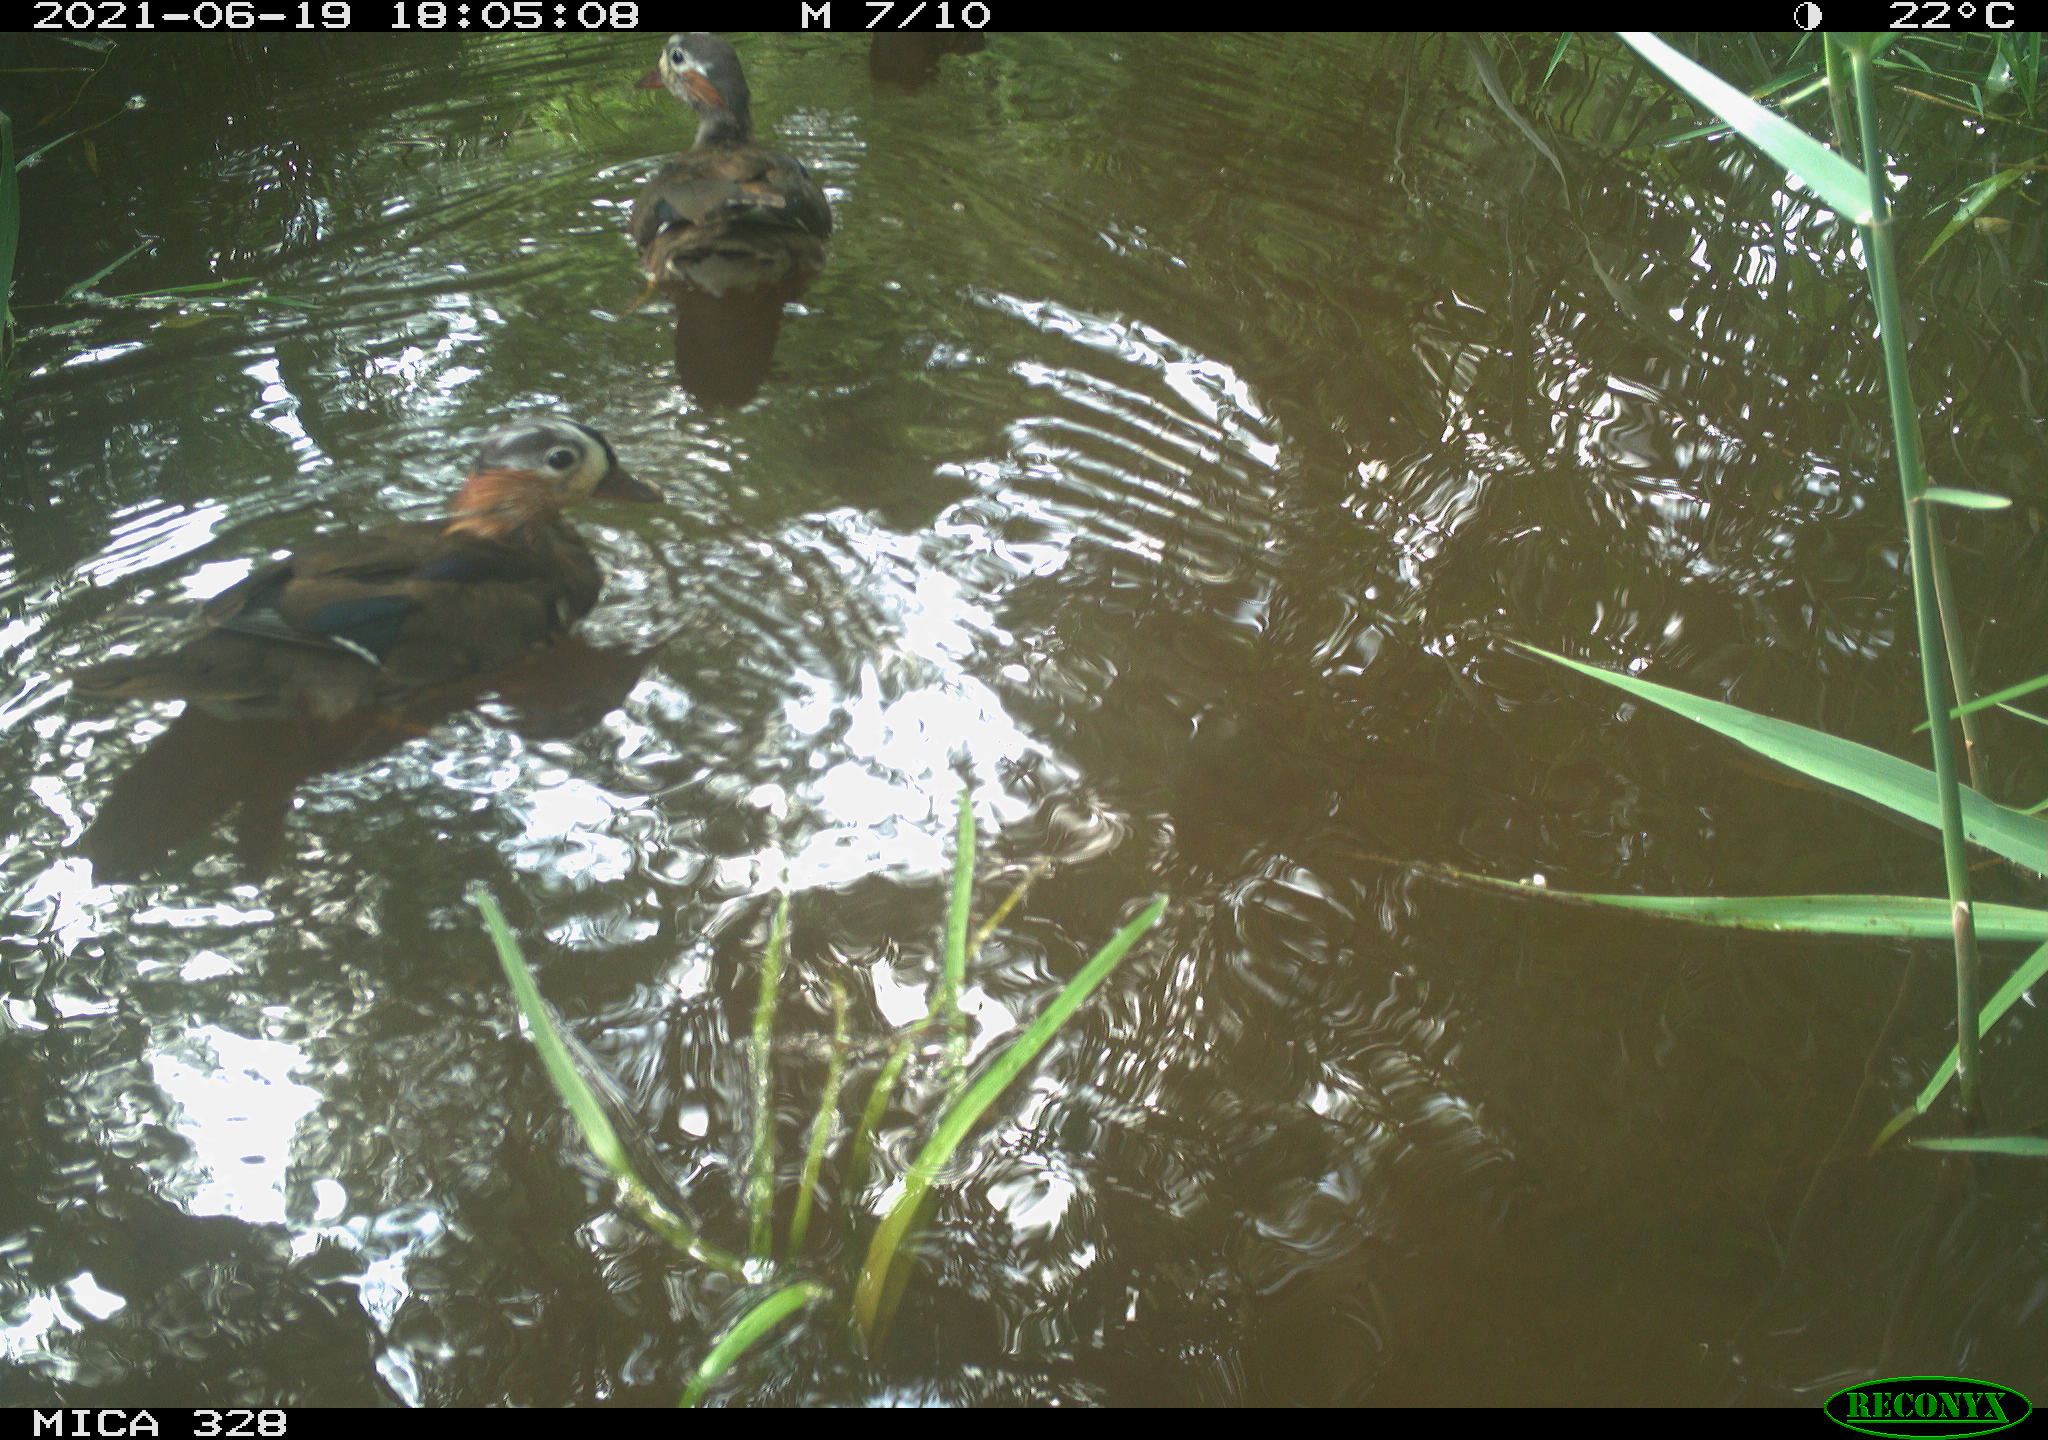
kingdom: Animalia
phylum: Chordata
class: Aves
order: Anseriformes
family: Anatidae
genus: Aix
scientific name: Aix galericulata
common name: Mandarin duck
